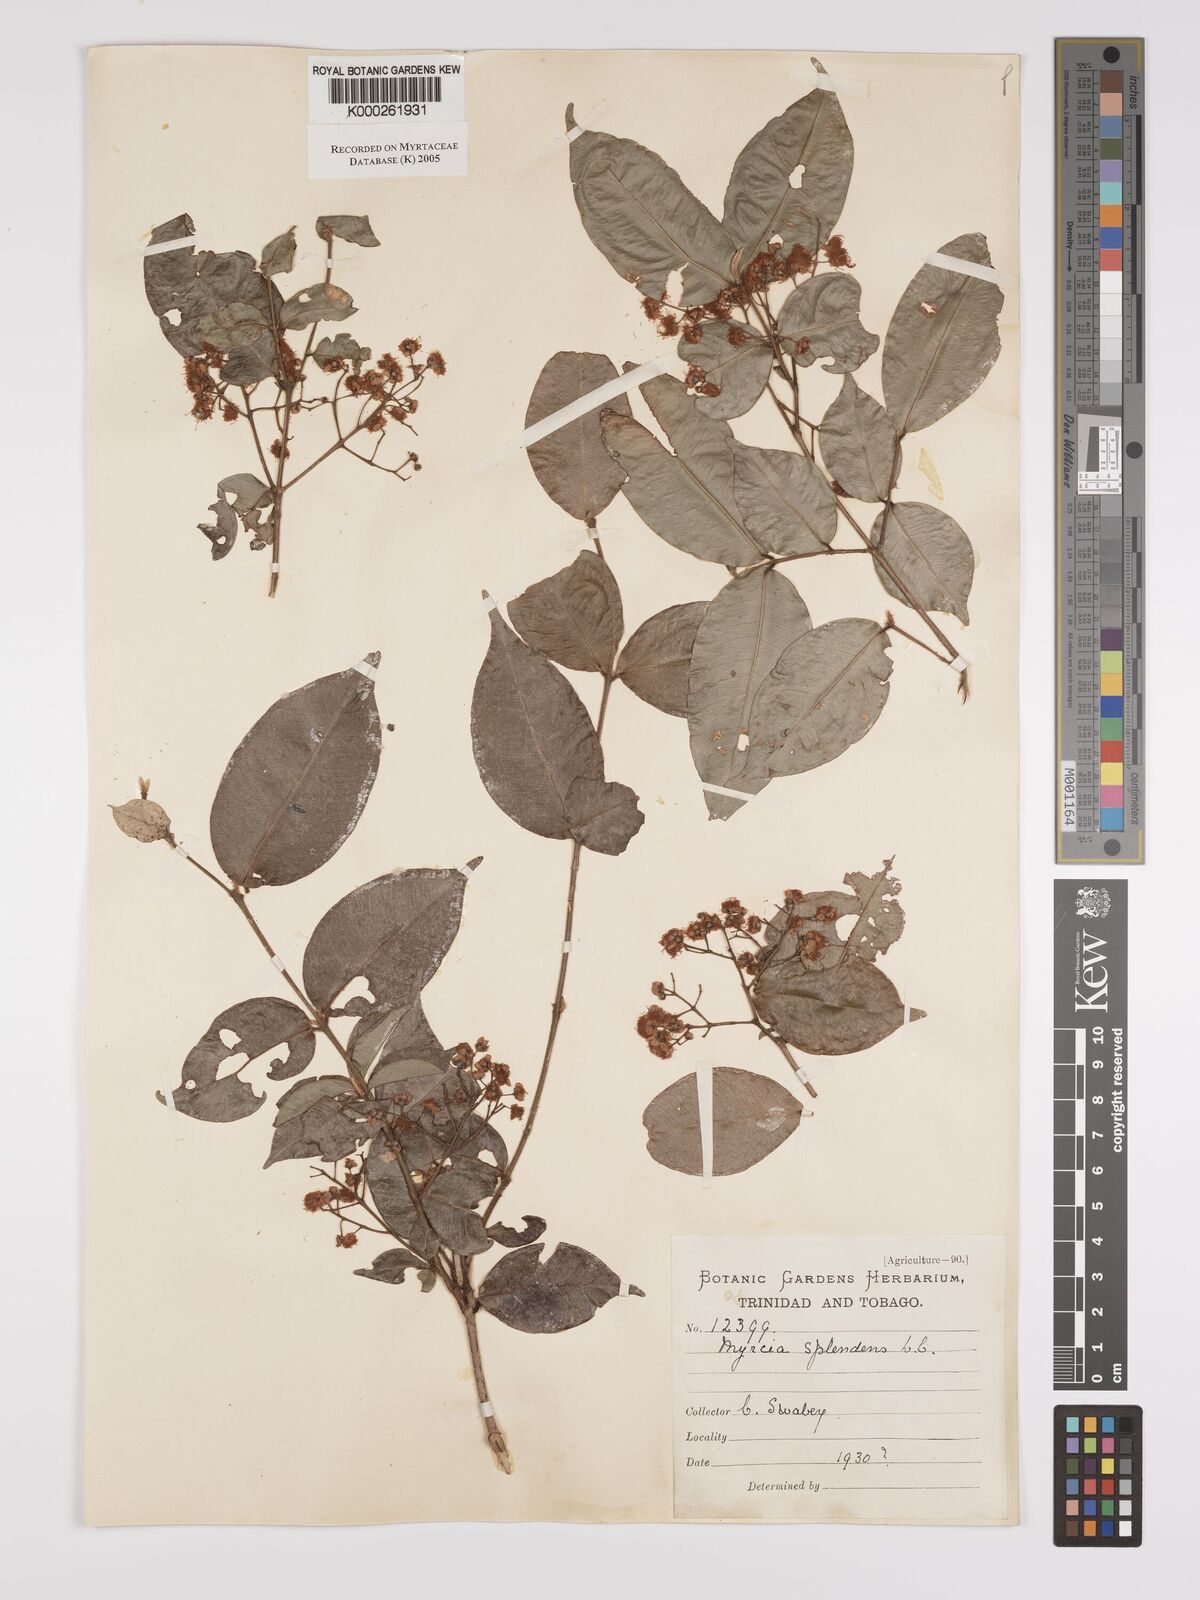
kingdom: Plantae
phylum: Tracheophyta
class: Magnoliopsida
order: Myrtales
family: Myrtaceae
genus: Myrcia
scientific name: Myrcia splendens
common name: Surinam cherry
